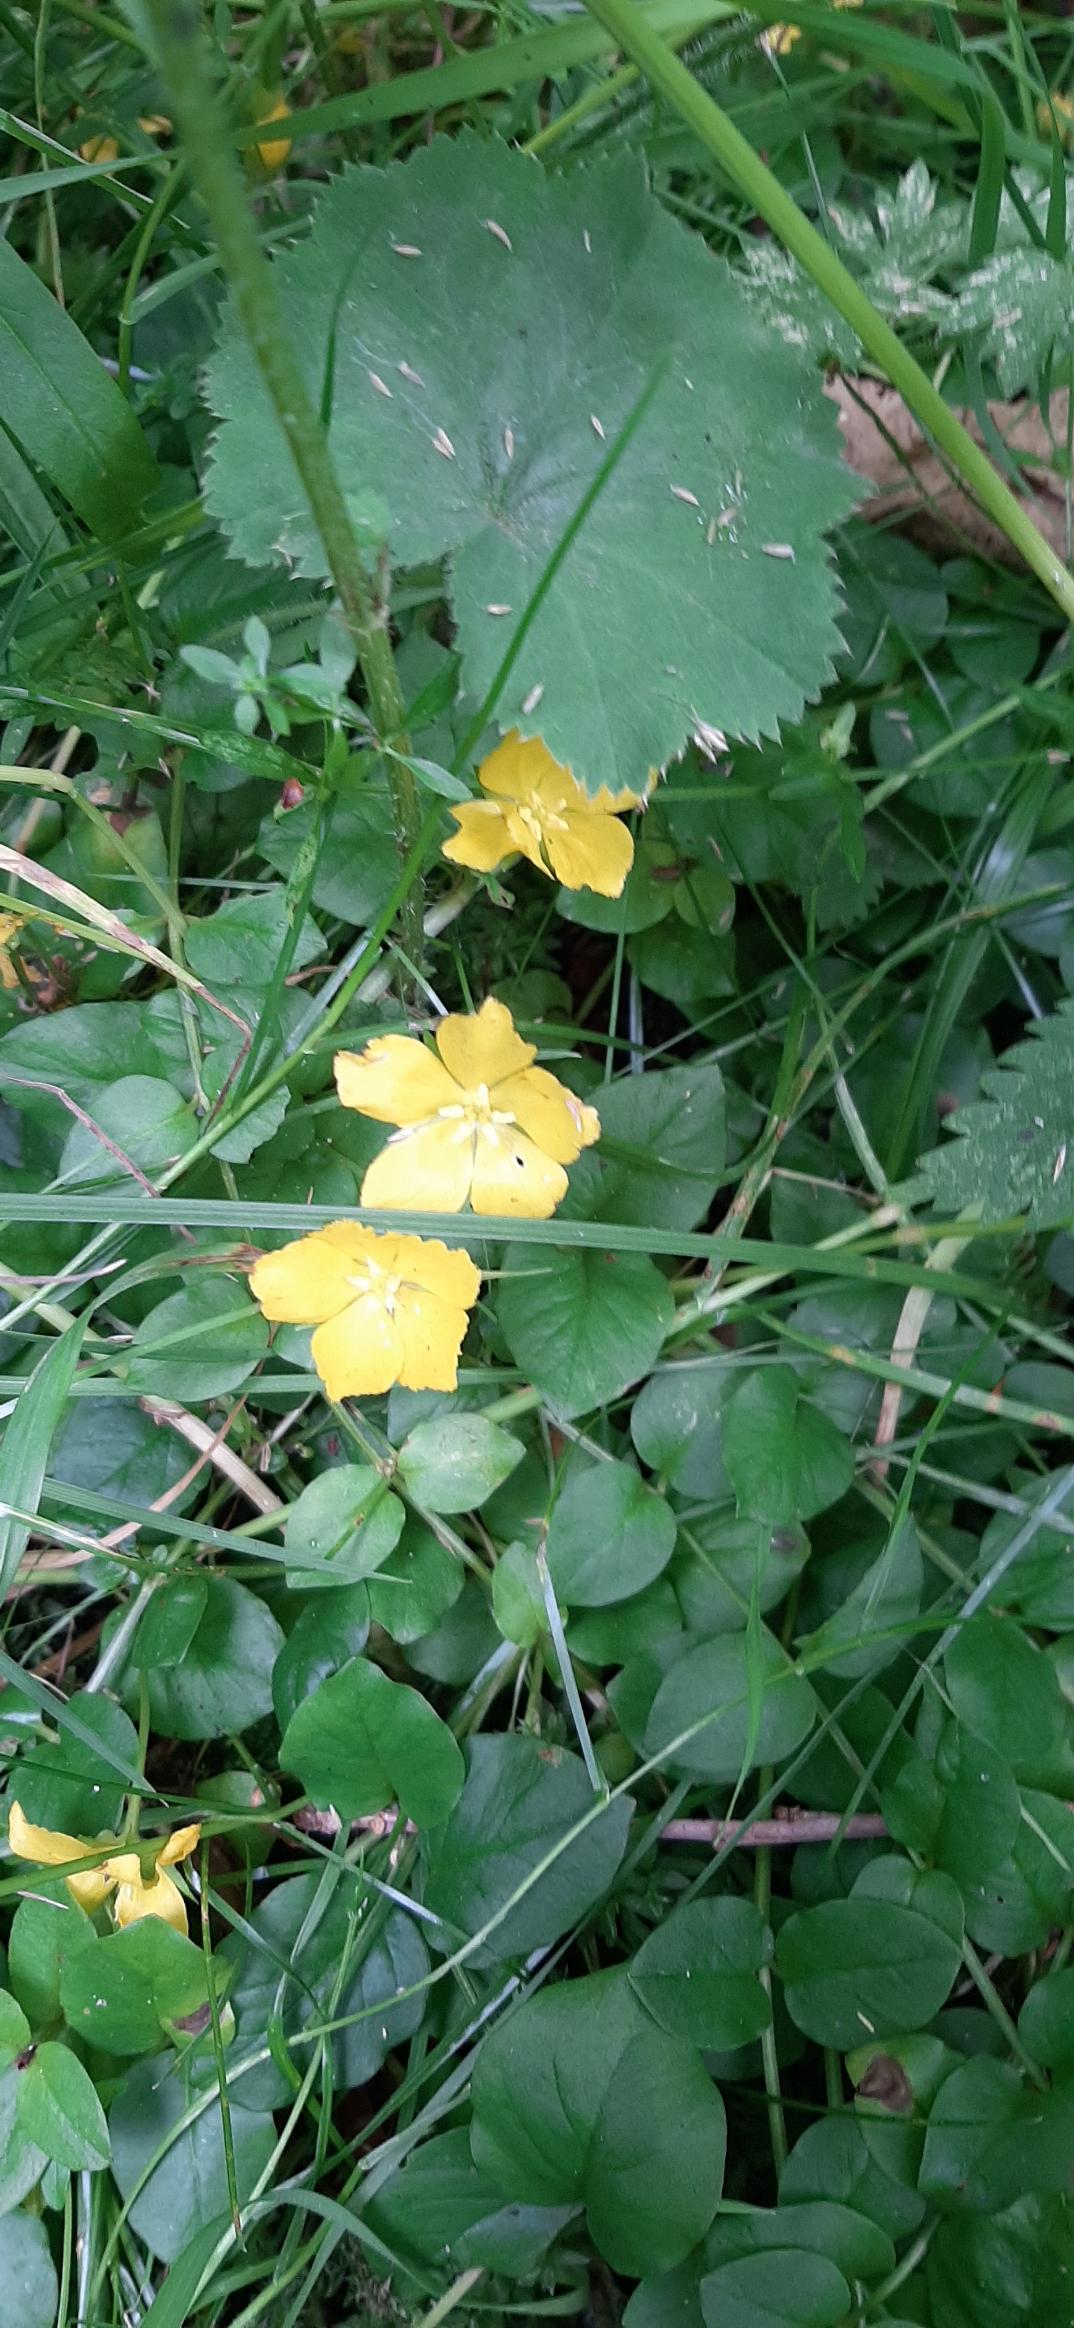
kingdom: Plantae
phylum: Tracheophyta
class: Magnoliopsida
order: Ericales
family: Primulaceae
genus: Lysimachia
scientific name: Lysimachia nemorum
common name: Lund-fredløs
